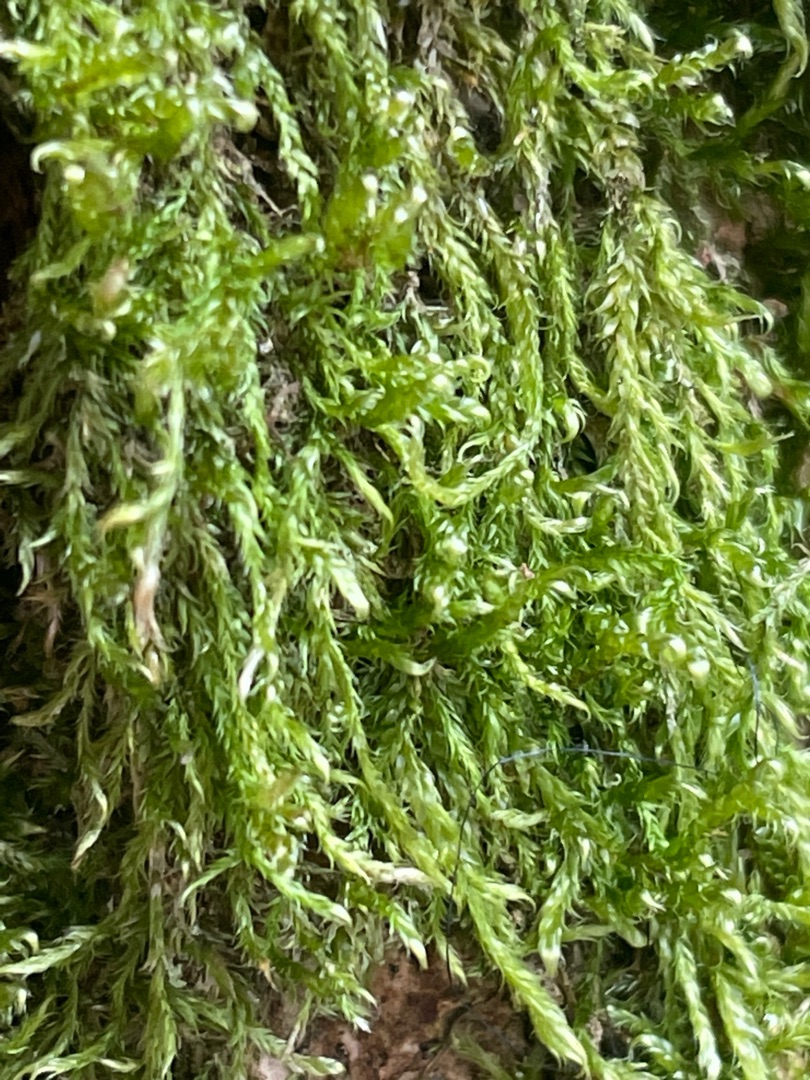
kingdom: Plantae
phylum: Bryophyta
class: Bryopsida
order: Hypnales
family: Hypnaceae
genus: Hypnum
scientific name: Hypnum
